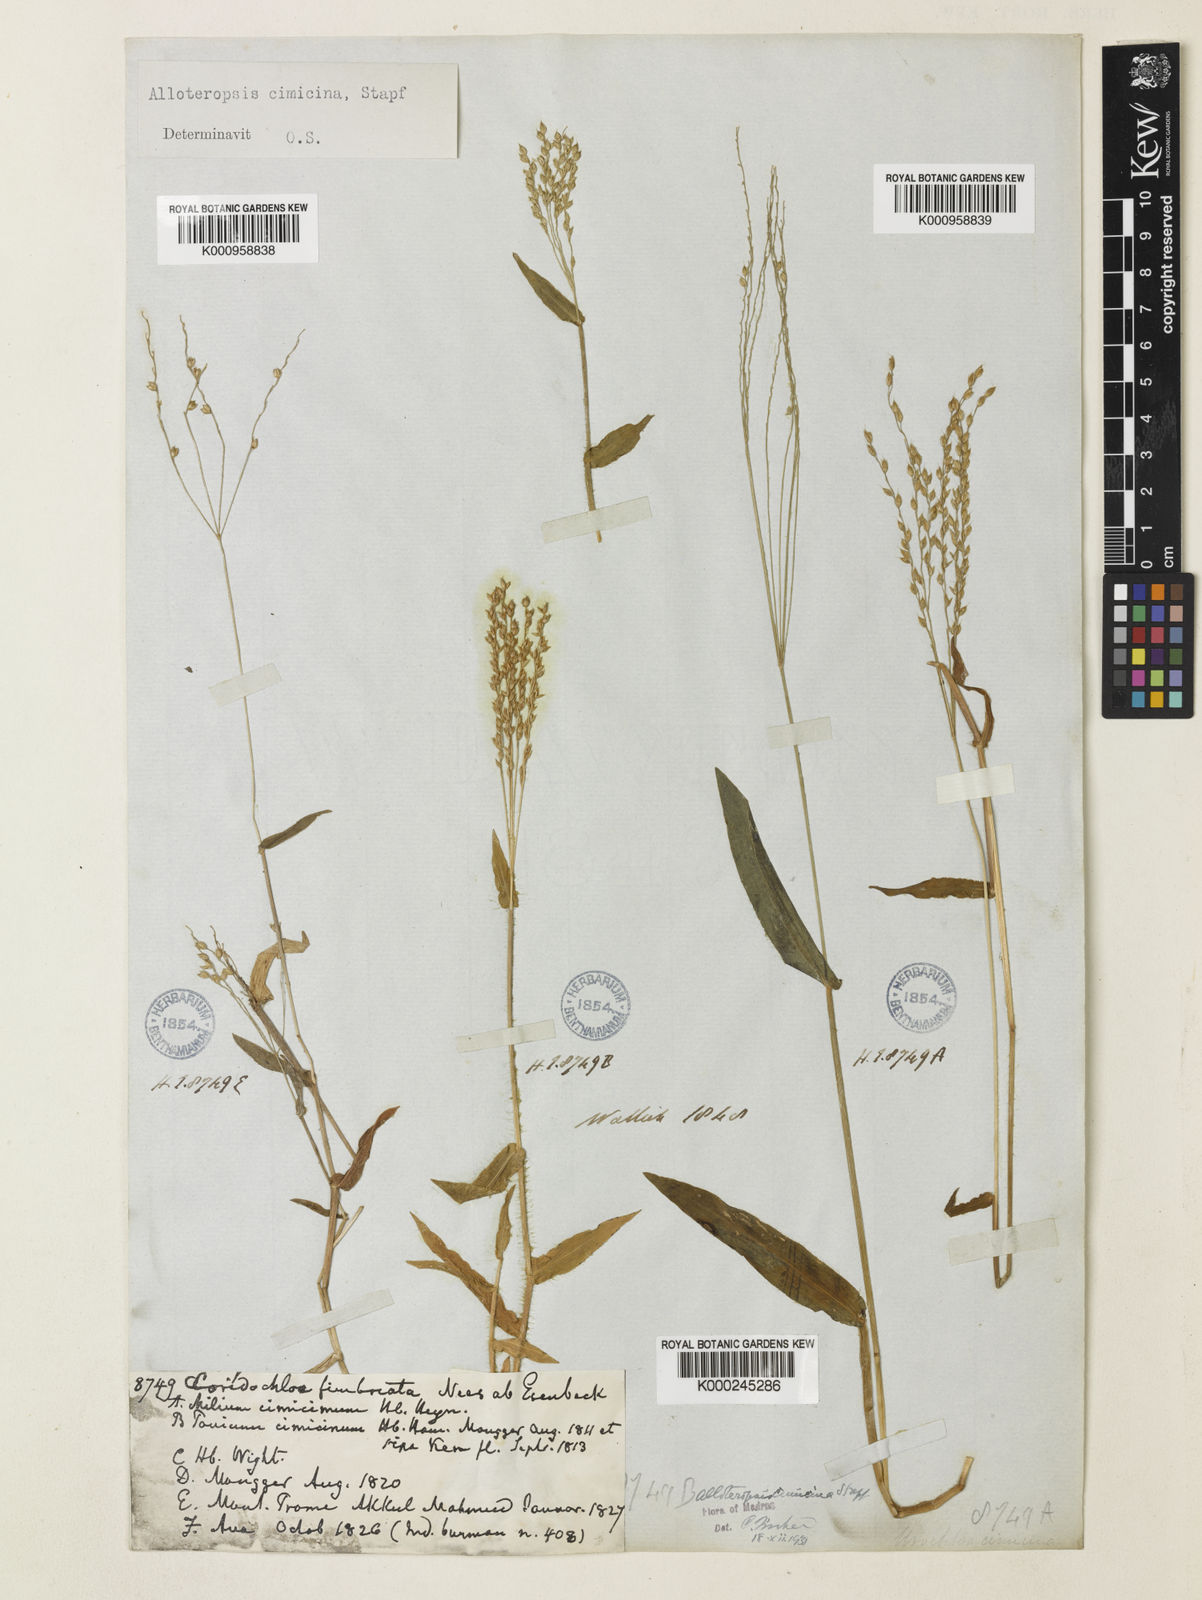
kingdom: Plantae
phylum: Tracheophyta
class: Liliopsida
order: Poales
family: Poaceae
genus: Alloteropsis
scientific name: Alloteropsis cimicina
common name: Summergrass
